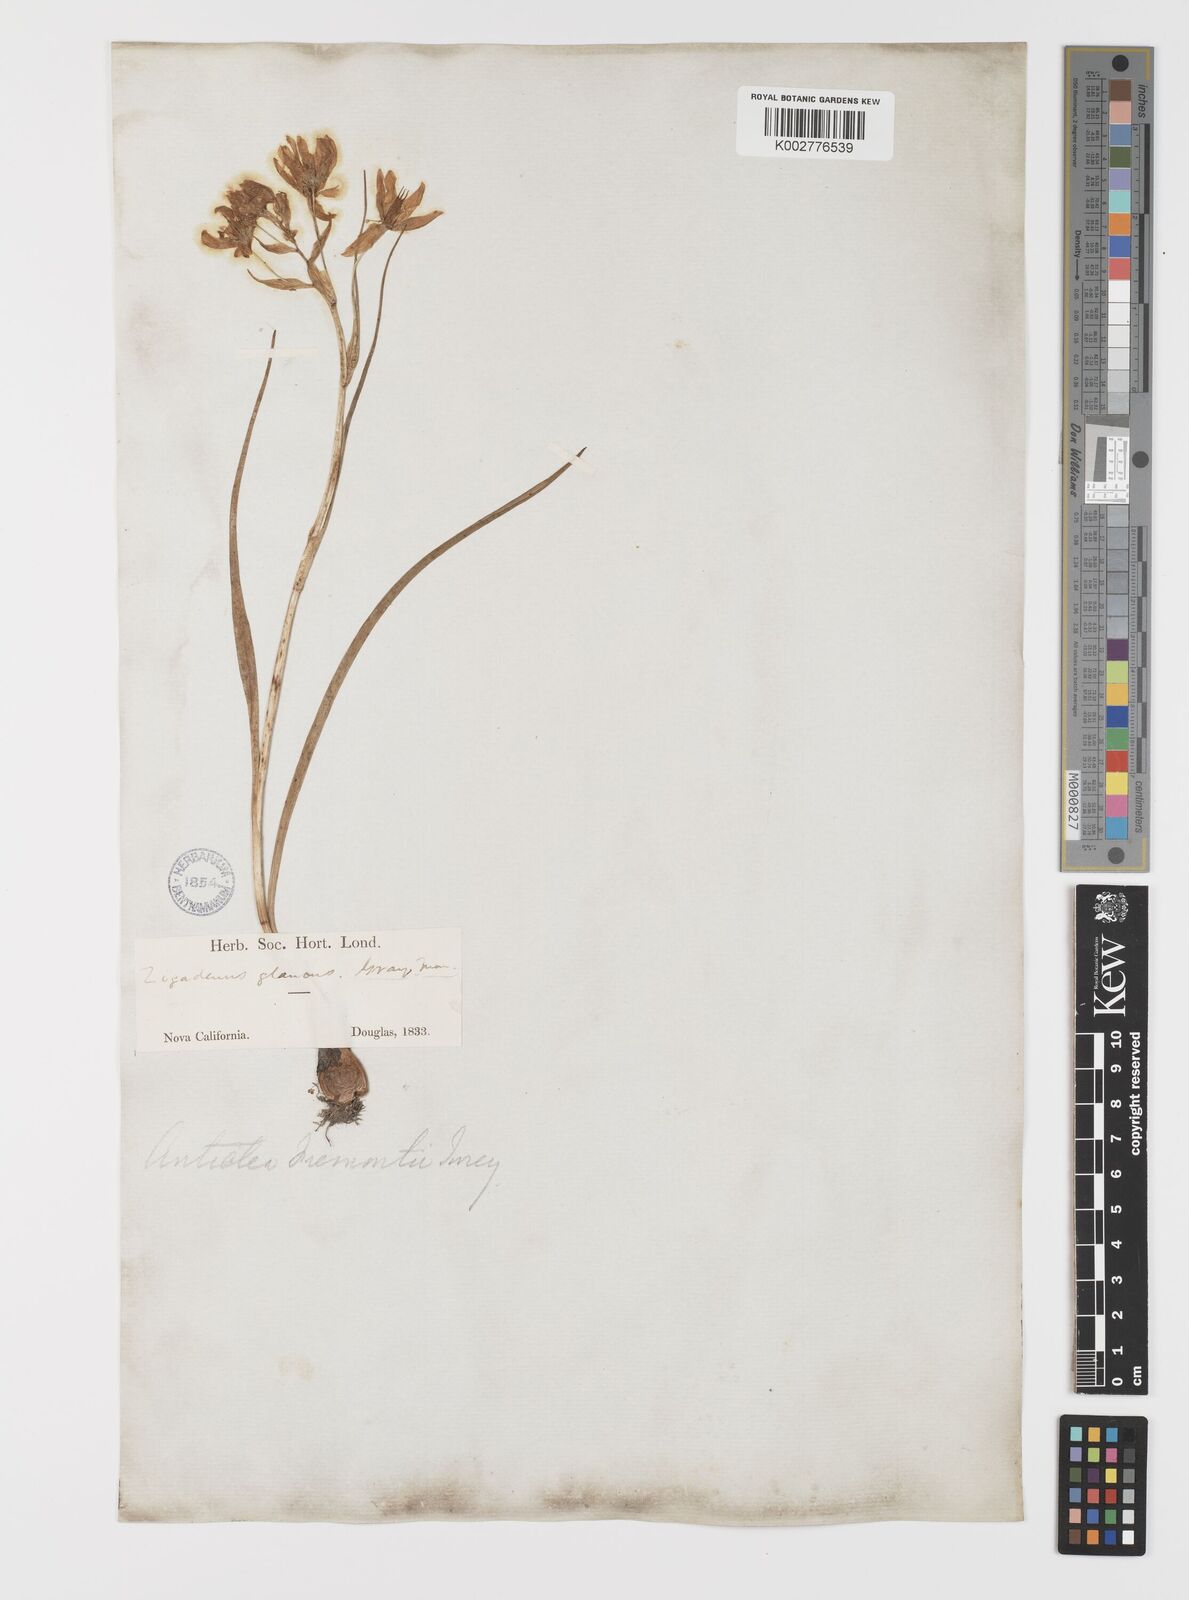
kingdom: Plantae
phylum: Tracheophyta
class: Liliopsida
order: Liliales
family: Melanthiaceae
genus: Toxicoscordion
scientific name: Toxicoscordion fremontii
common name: Fremont's death camas
